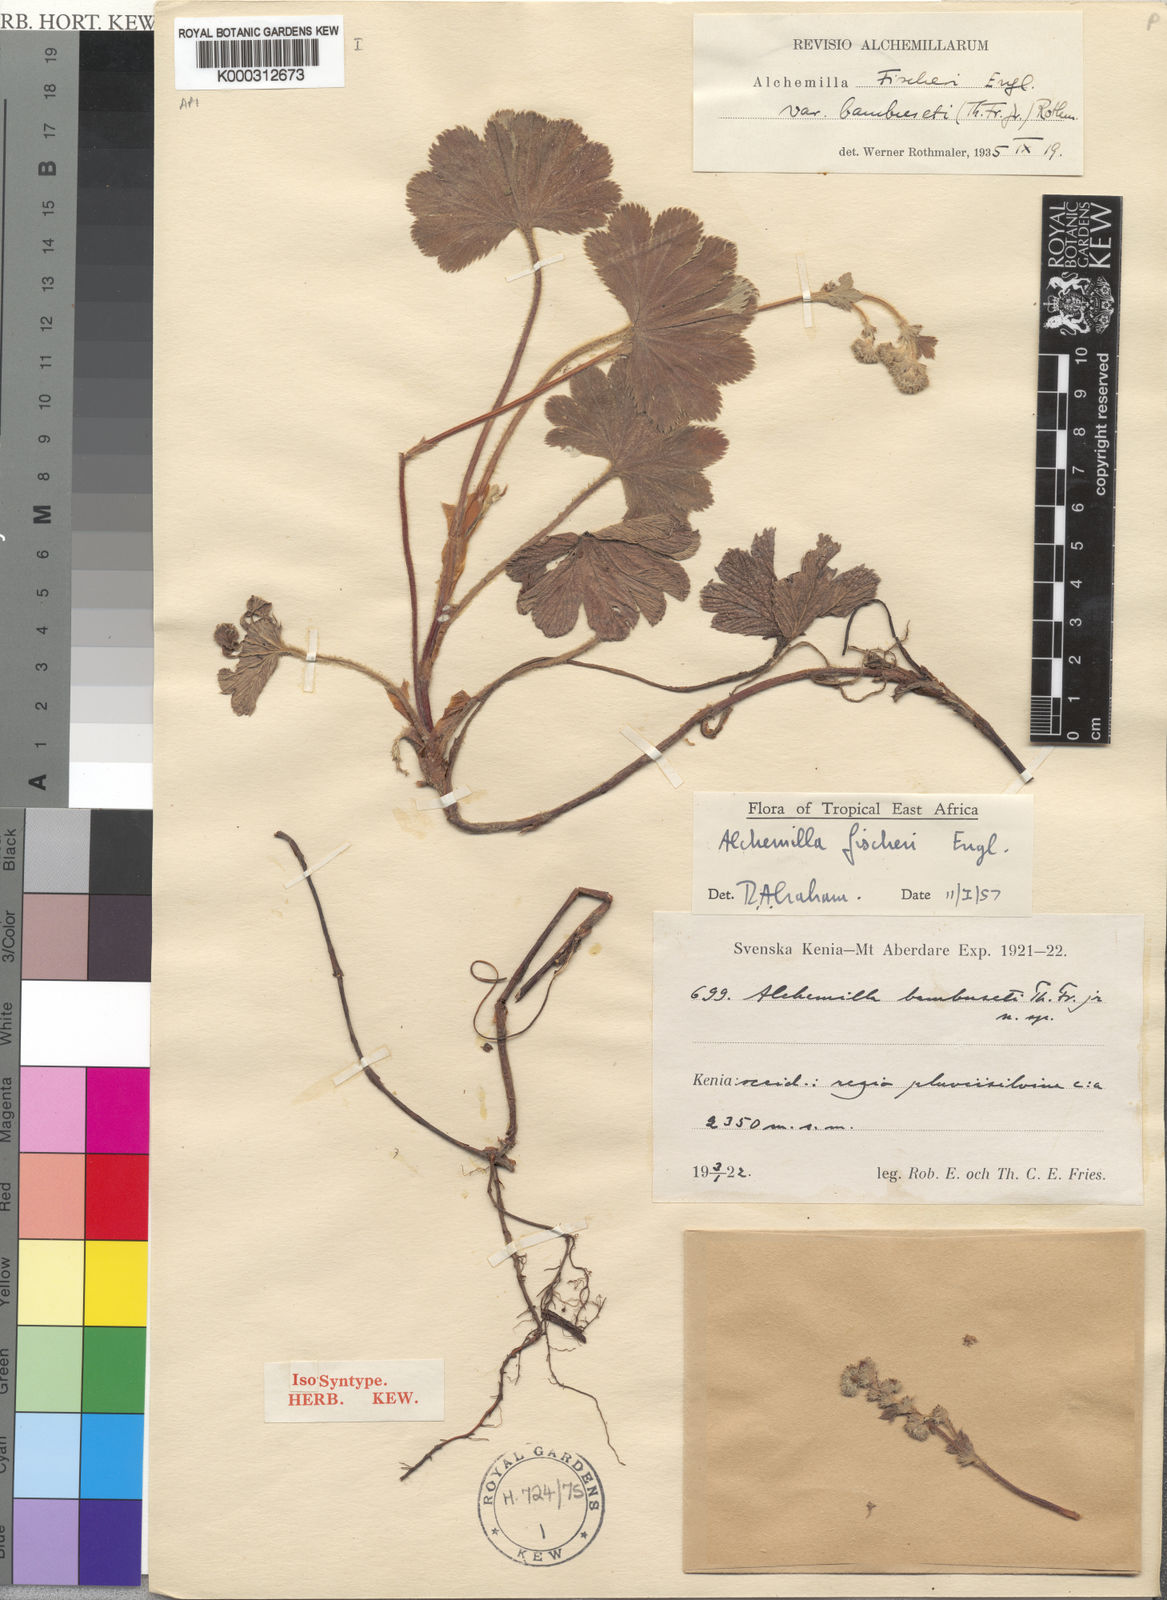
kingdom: Plantae
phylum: Tracheophyta
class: Magnoliopsida
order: Rosales
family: Rosaceae
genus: Alchemilla
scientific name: Alchemilla fischeri
